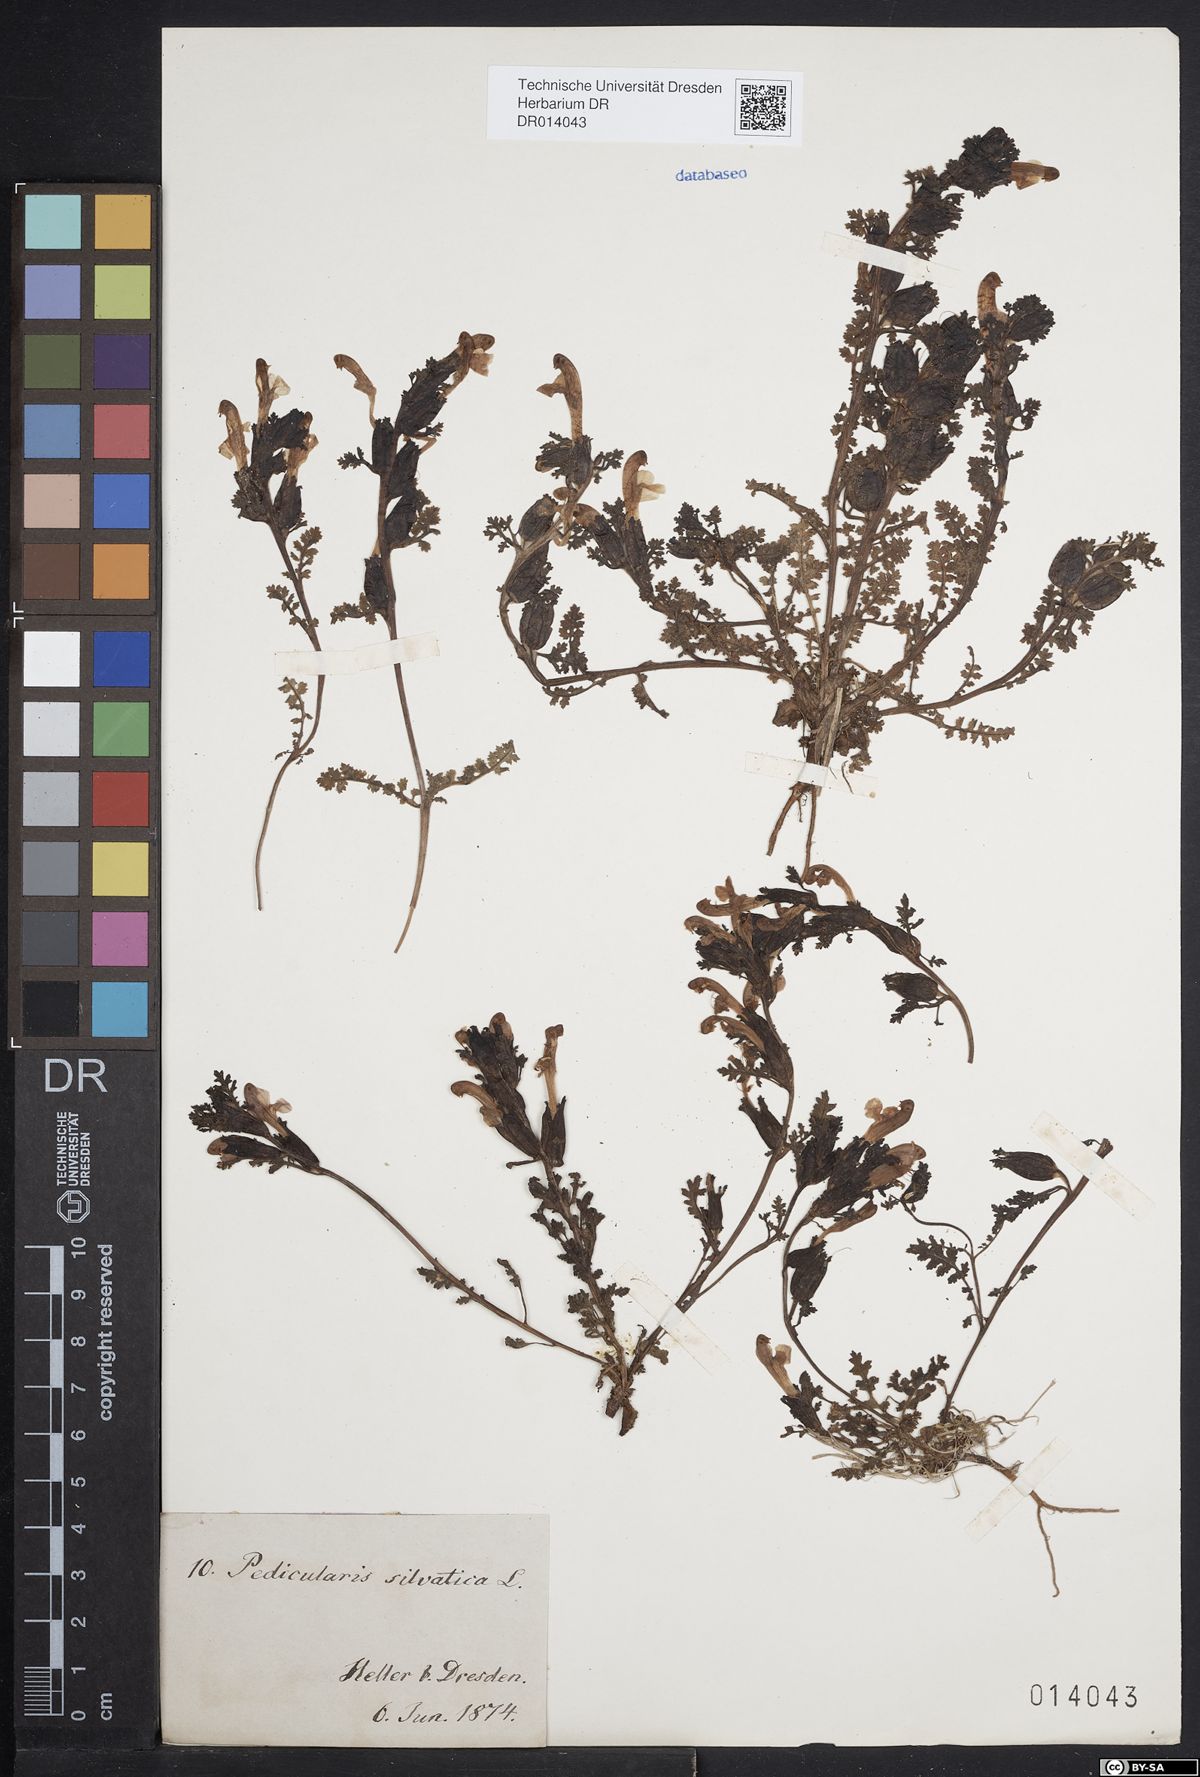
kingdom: Plantae
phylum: Tracheophyta
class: Magnoliopsida
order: Lamiales
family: Orobanchaceae
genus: Pedicularis
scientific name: Pedicularis sylvatica
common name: Lousewort
